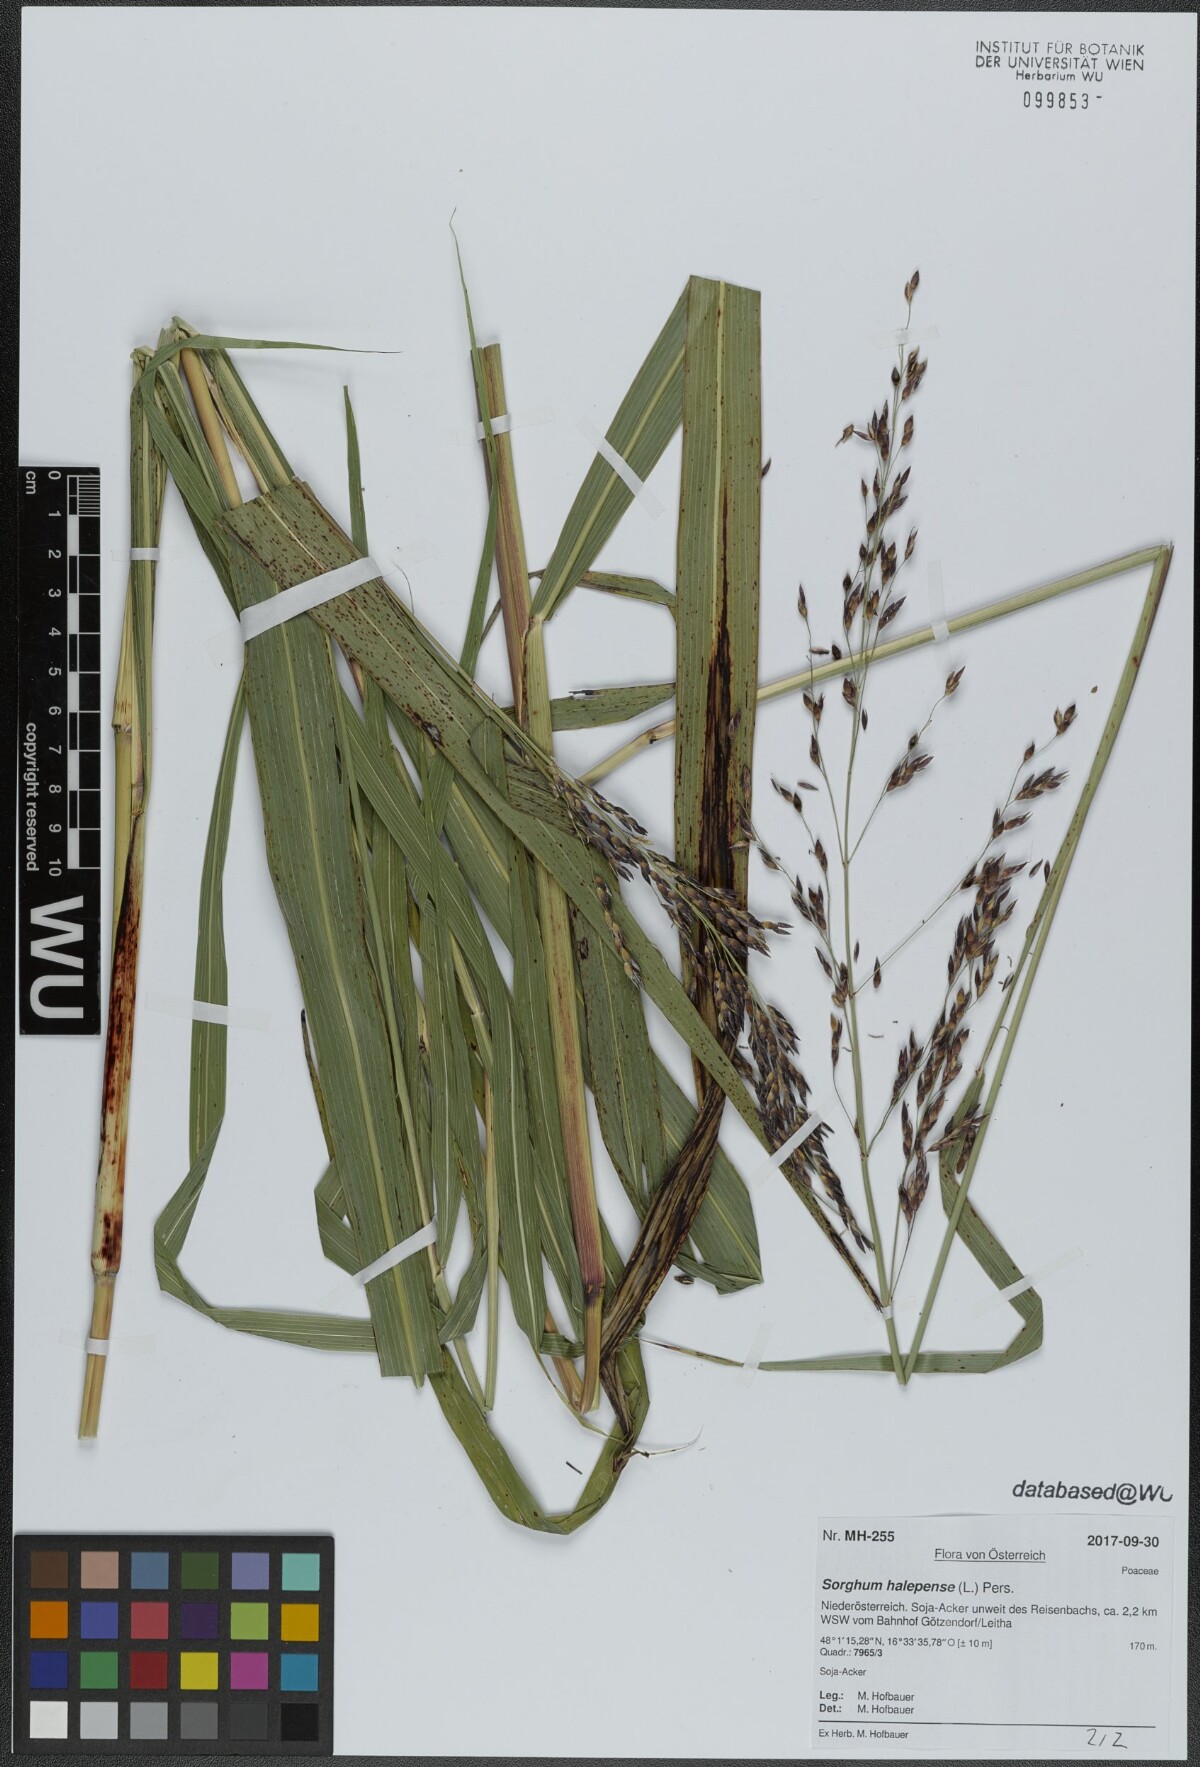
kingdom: Plantae
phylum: Tracheophyta
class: Liliopsida
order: Poales
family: Poaceae
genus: Sorghum
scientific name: Sorghum halepense
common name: Johnson-grass
